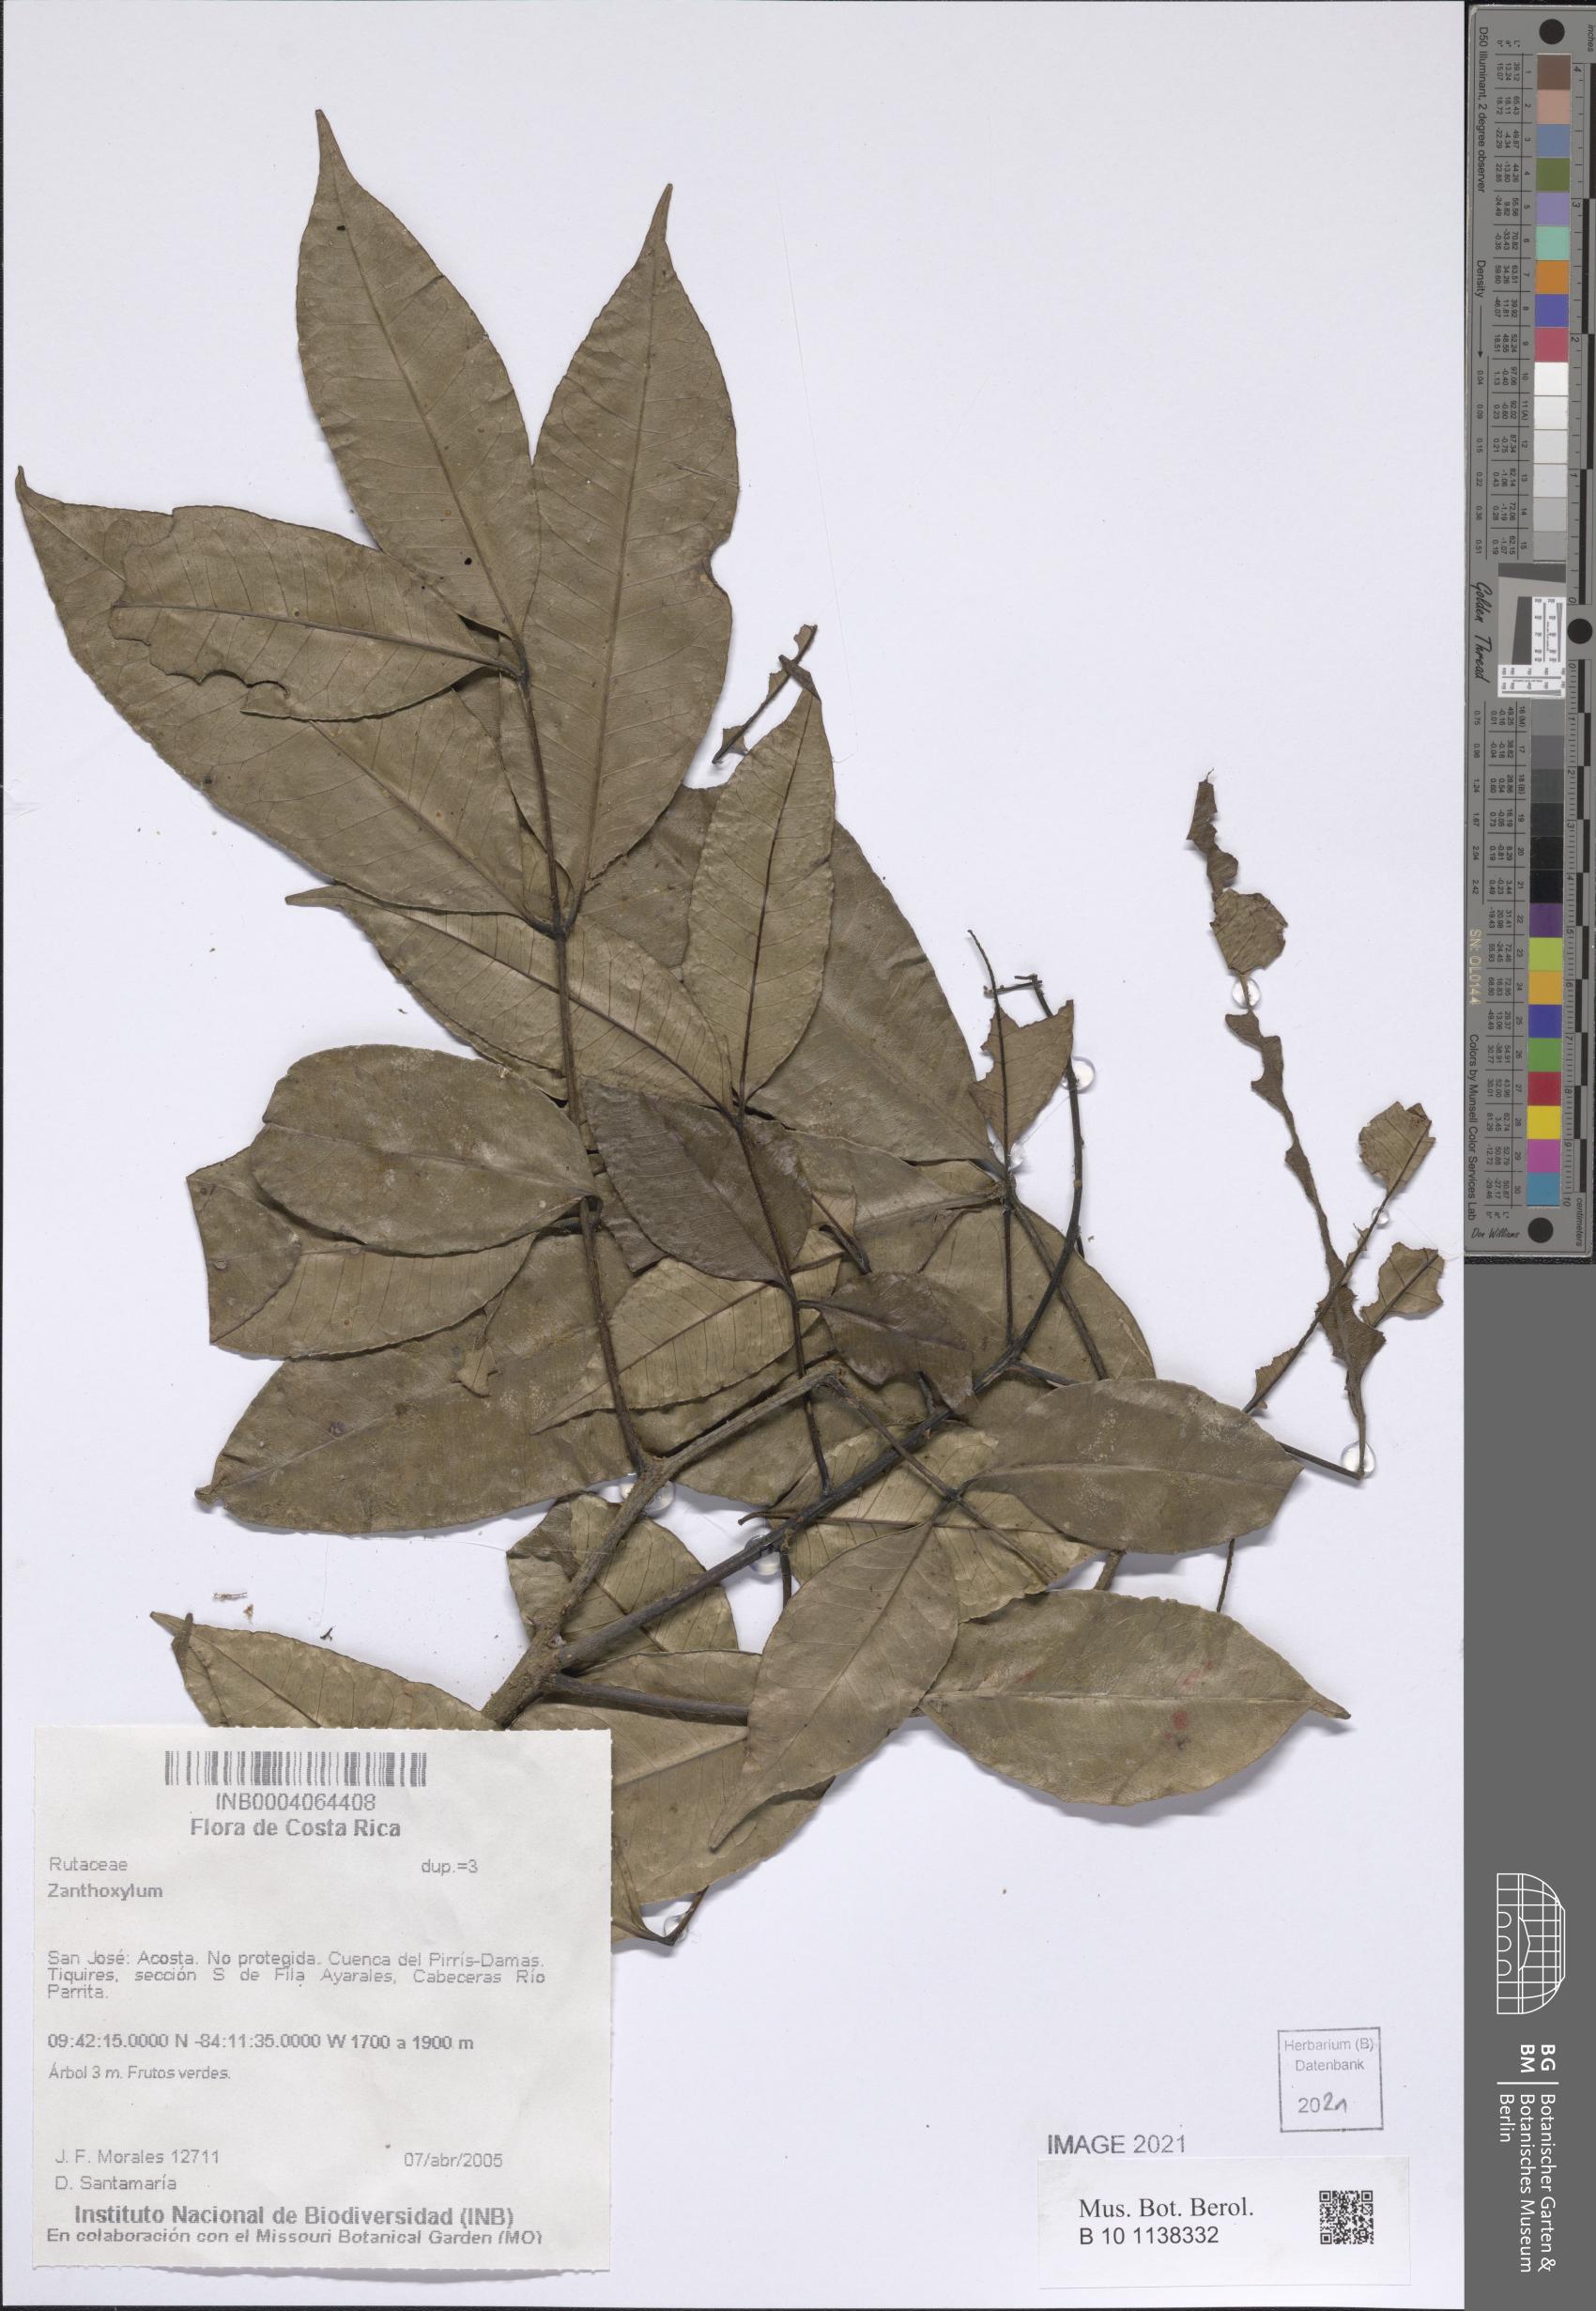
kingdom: Plantae
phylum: Tracheophyta
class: Magnoliopsida
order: Sapindales
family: Rutaceae
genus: Zanthoxylum
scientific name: Zanthoxylum
